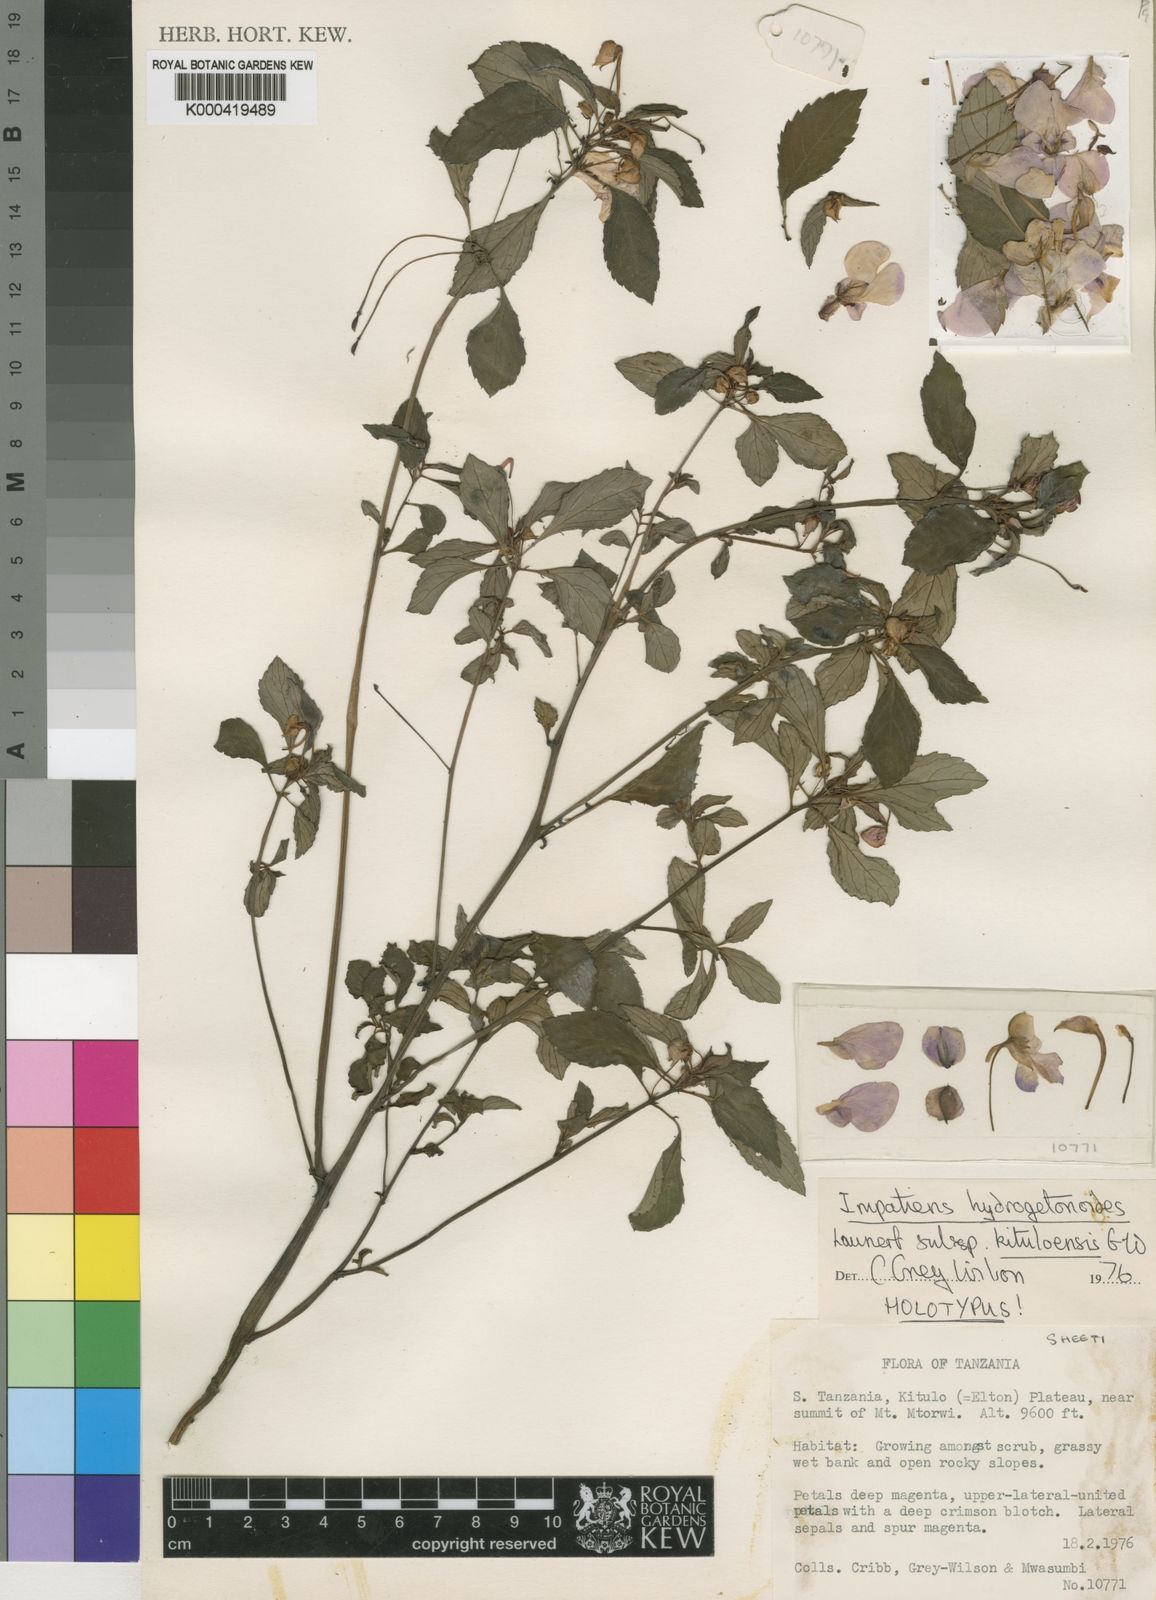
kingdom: Plantae
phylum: Tracheophyta
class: Magnoliopsida
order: Ericales
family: Balsaminaceae
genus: Impatiens
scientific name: Impatiens hydrogetonoides
